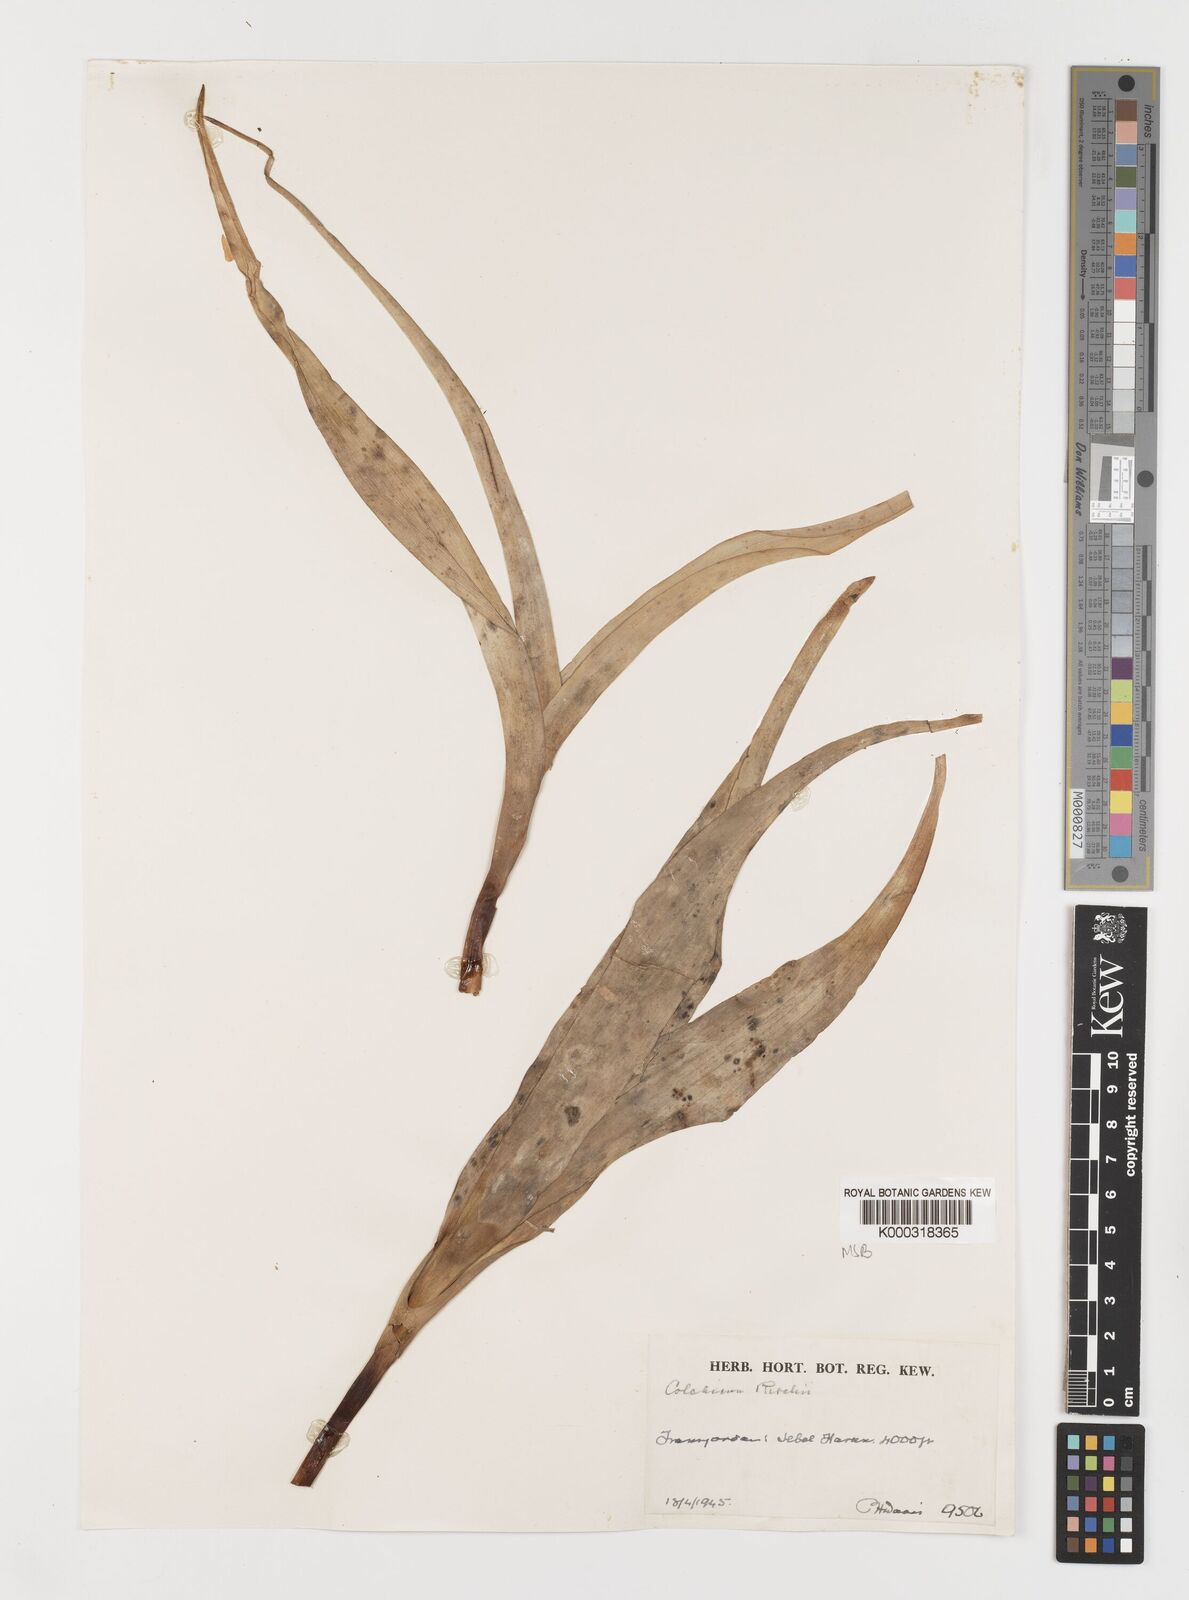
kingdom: Plantae
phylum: Tracheophyta
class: Liliopsida
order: Liliales
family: Colchicaceae
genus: Colchicum
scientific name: Colchicum ritchii
